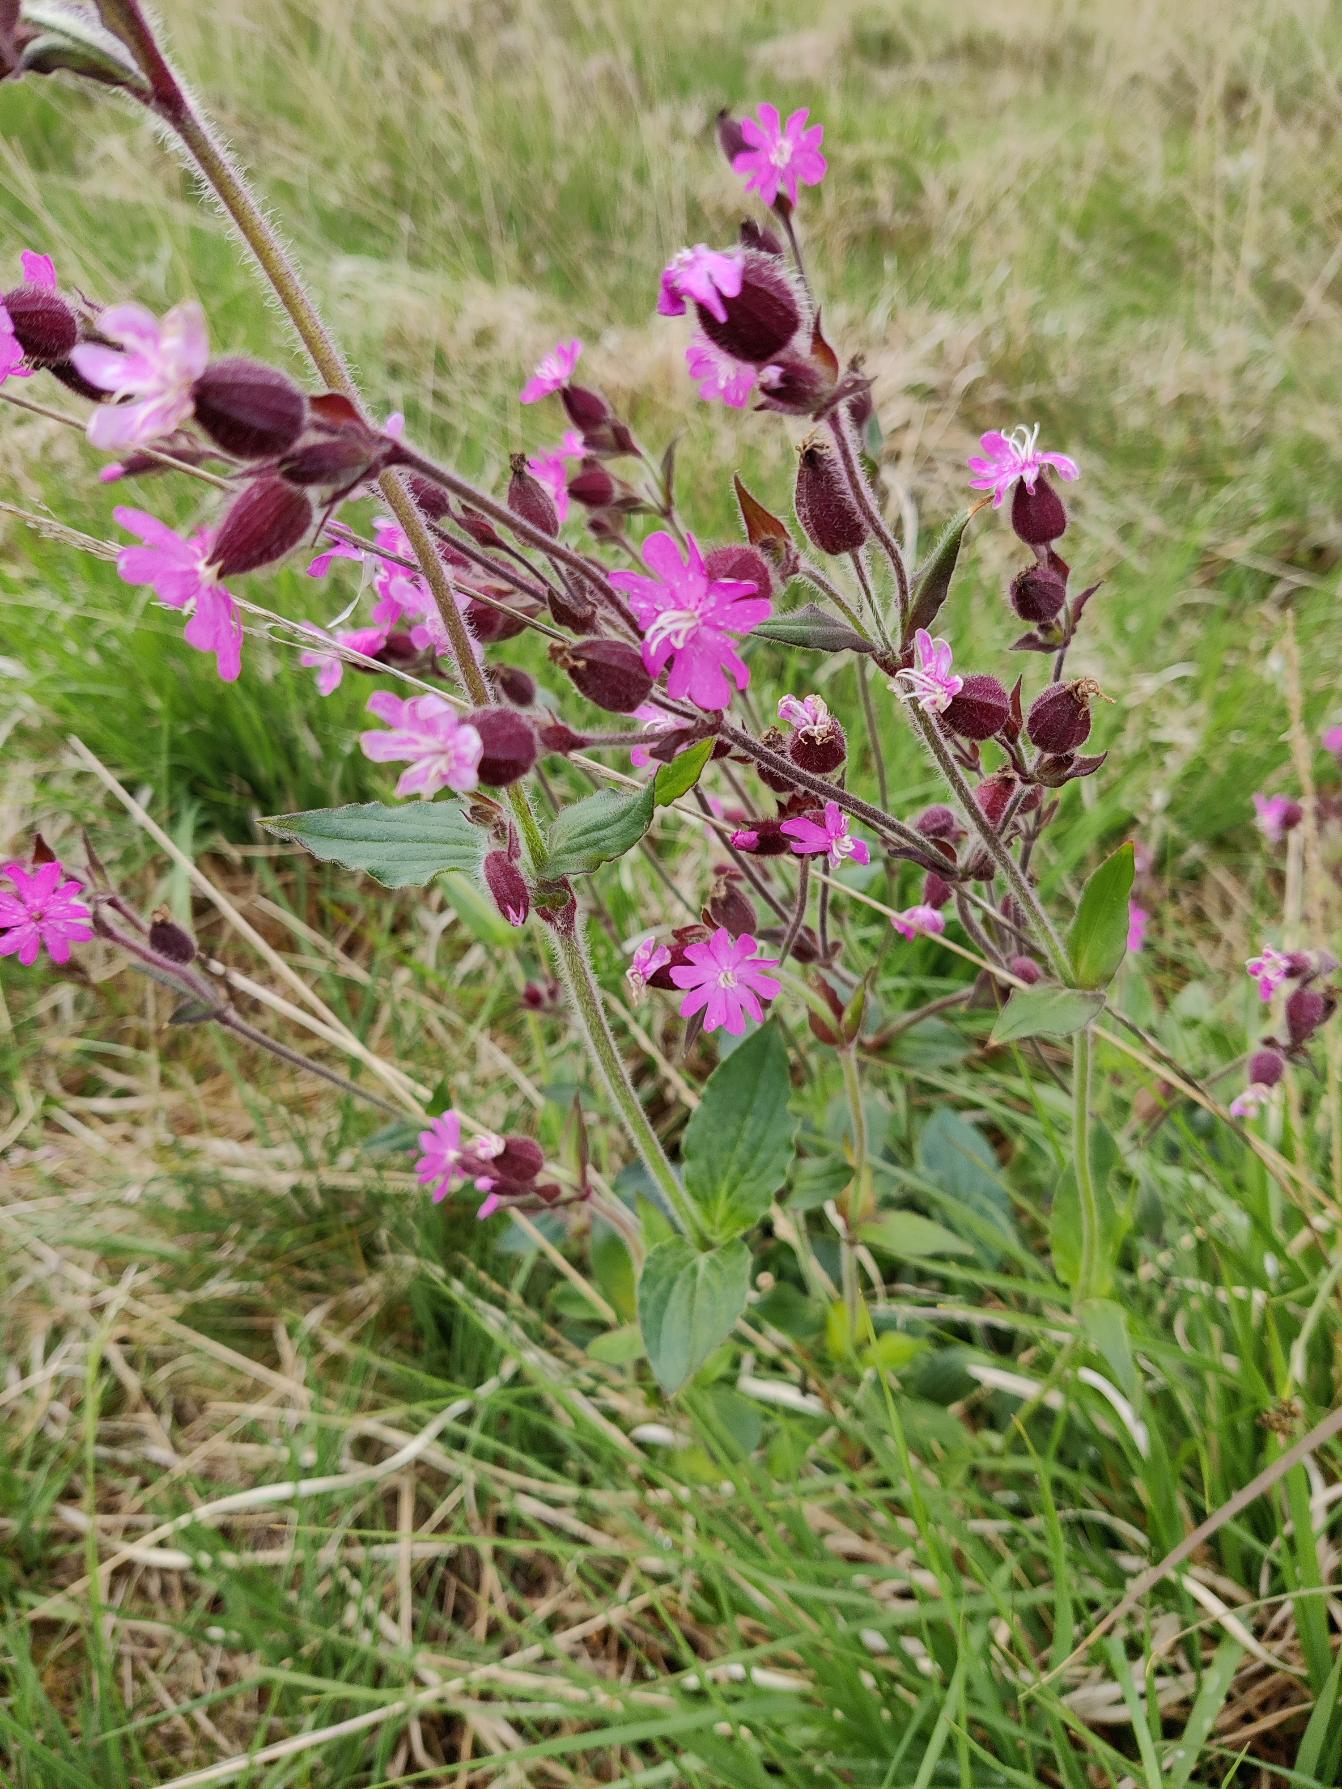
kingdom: Plantae
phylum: Tracheophyta
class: Magnoliopsida
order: Caryophyllales
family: Caryophyllaceae
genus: Silene
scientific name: Silene dioica
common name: Dagpragtstjerne
